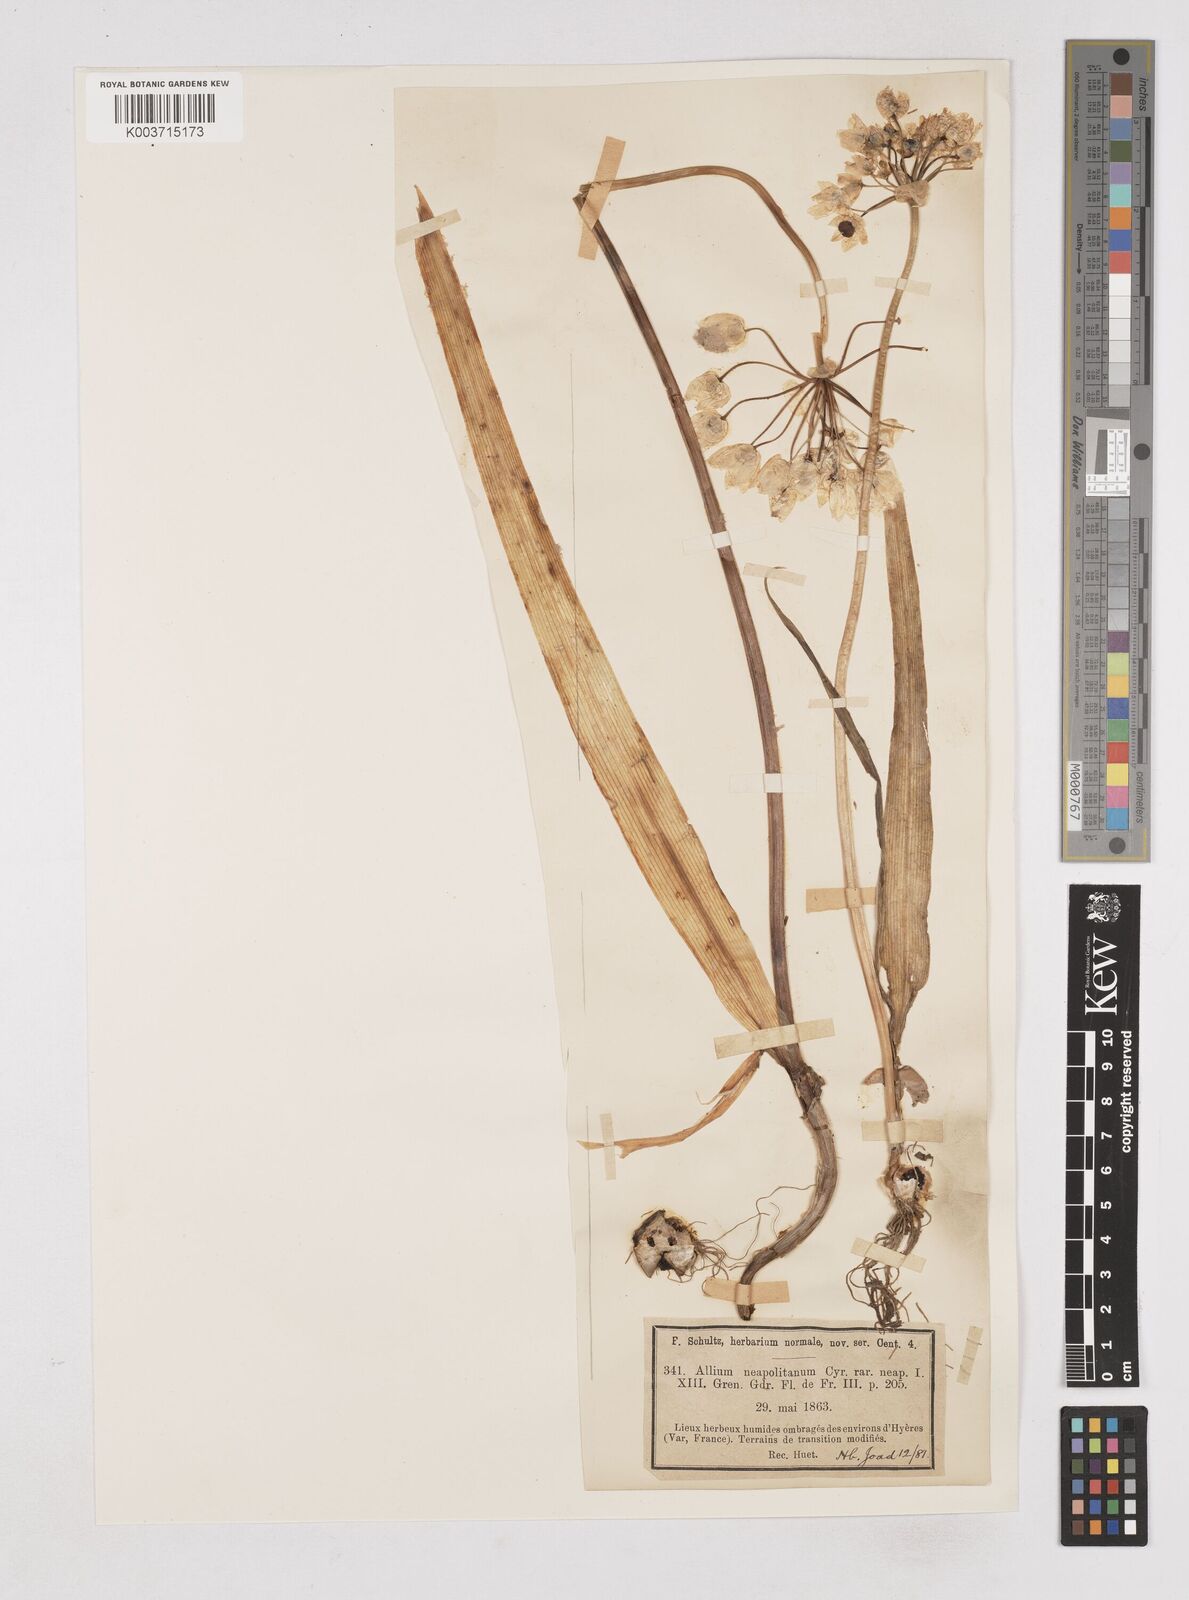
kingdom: Plantae
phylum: Tracheophyta
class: Liliopsida
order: Asparagales
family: Amaryllidaceae
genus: Allium
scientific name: Allium neapolitanum
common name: Neapolitan garlic
